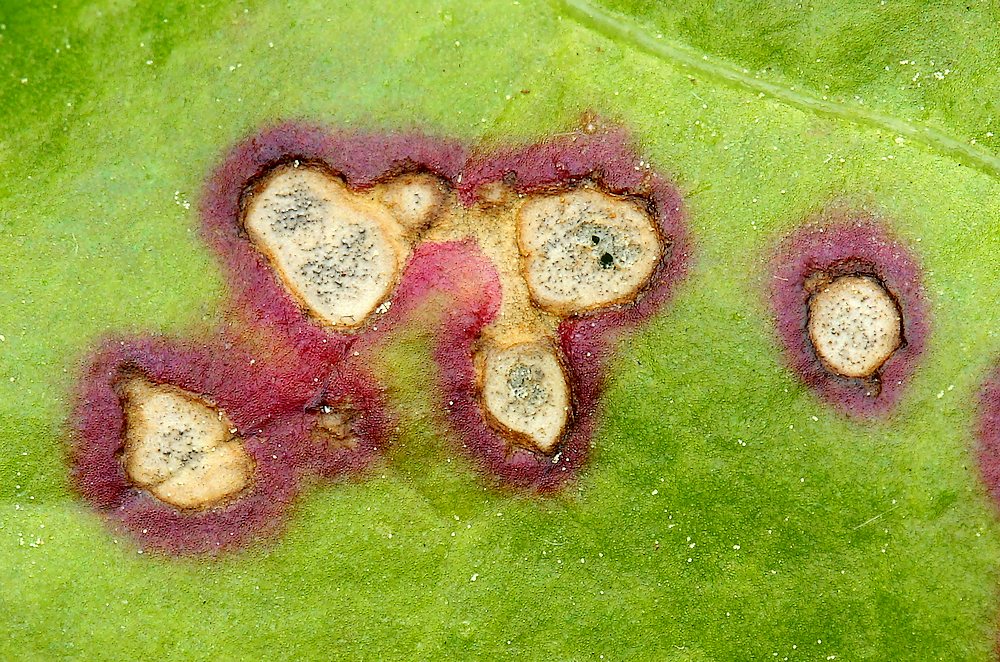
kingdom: Fungi
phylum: Ascomycota
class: Dothideomycetes
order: Mycosphaerellales
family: Mycosphaerellaceae
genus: Septoria
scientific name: Septoria
